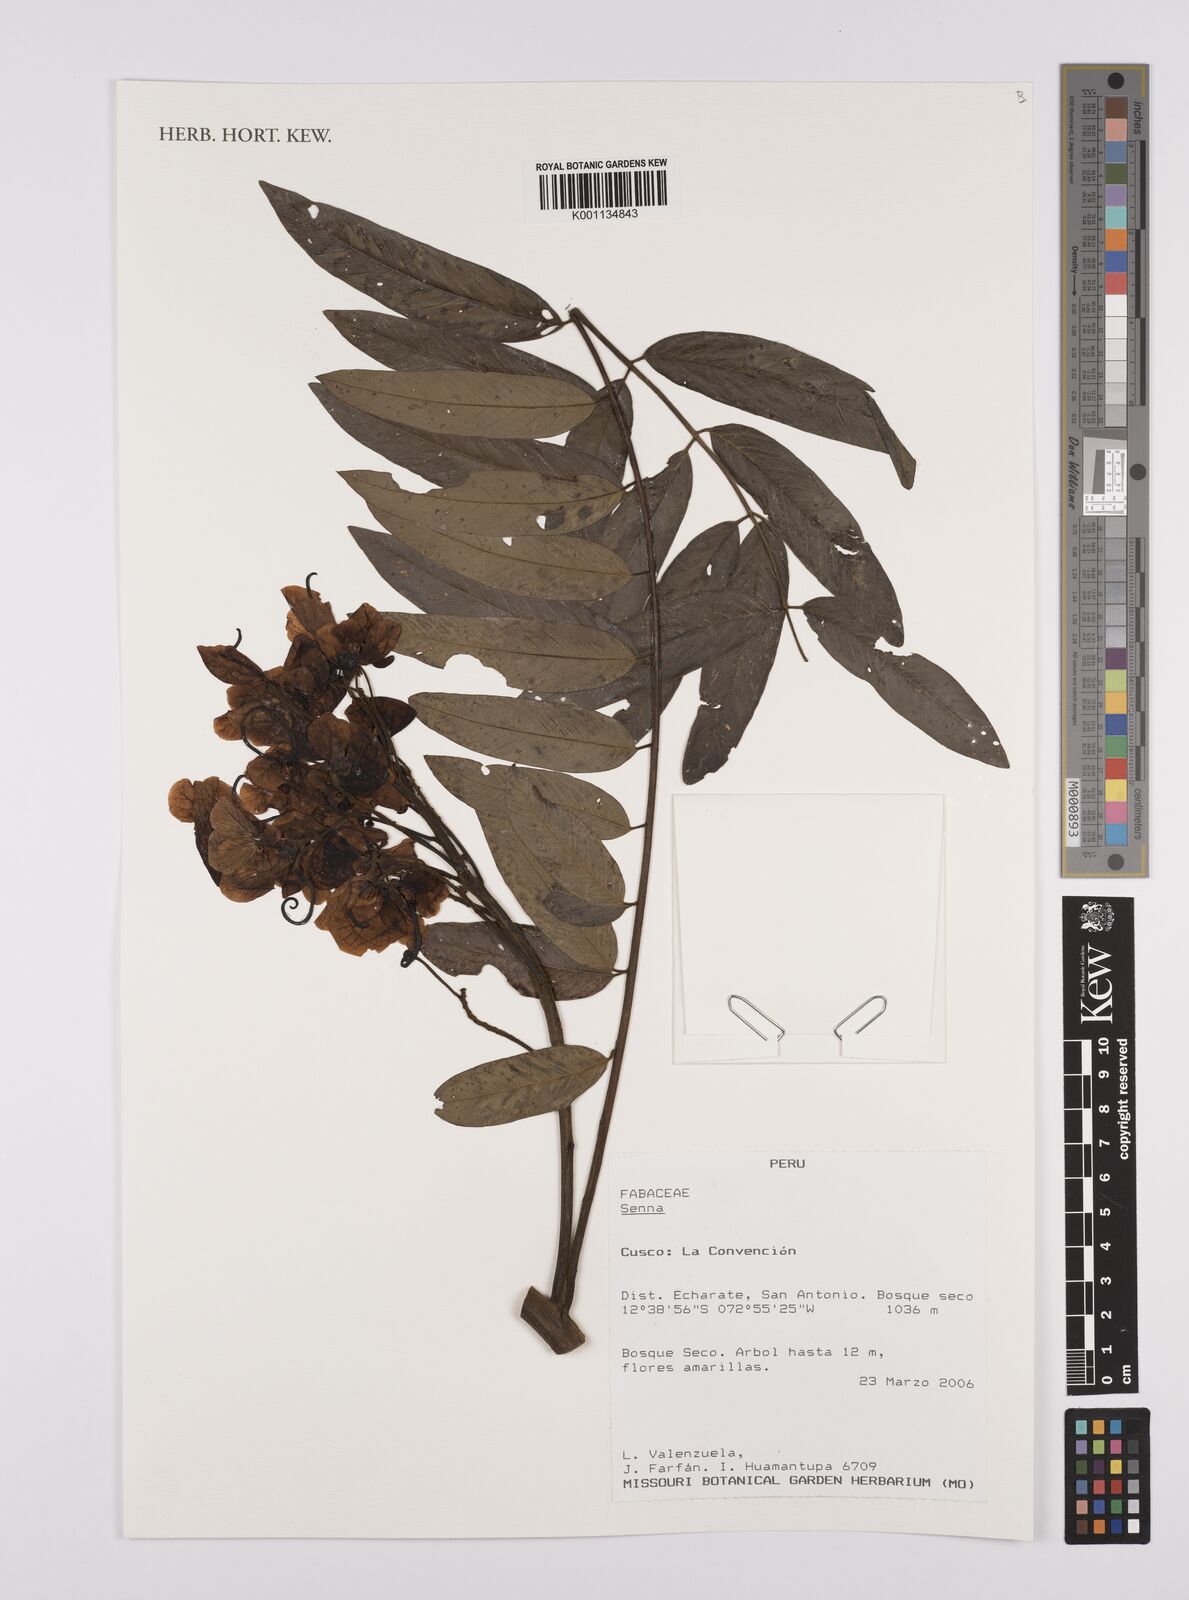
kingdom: Plantae
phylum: Tracheophyta
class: Magnoliopsida
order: Fabales
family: Fabaceae
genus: Senna
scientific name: Senna
